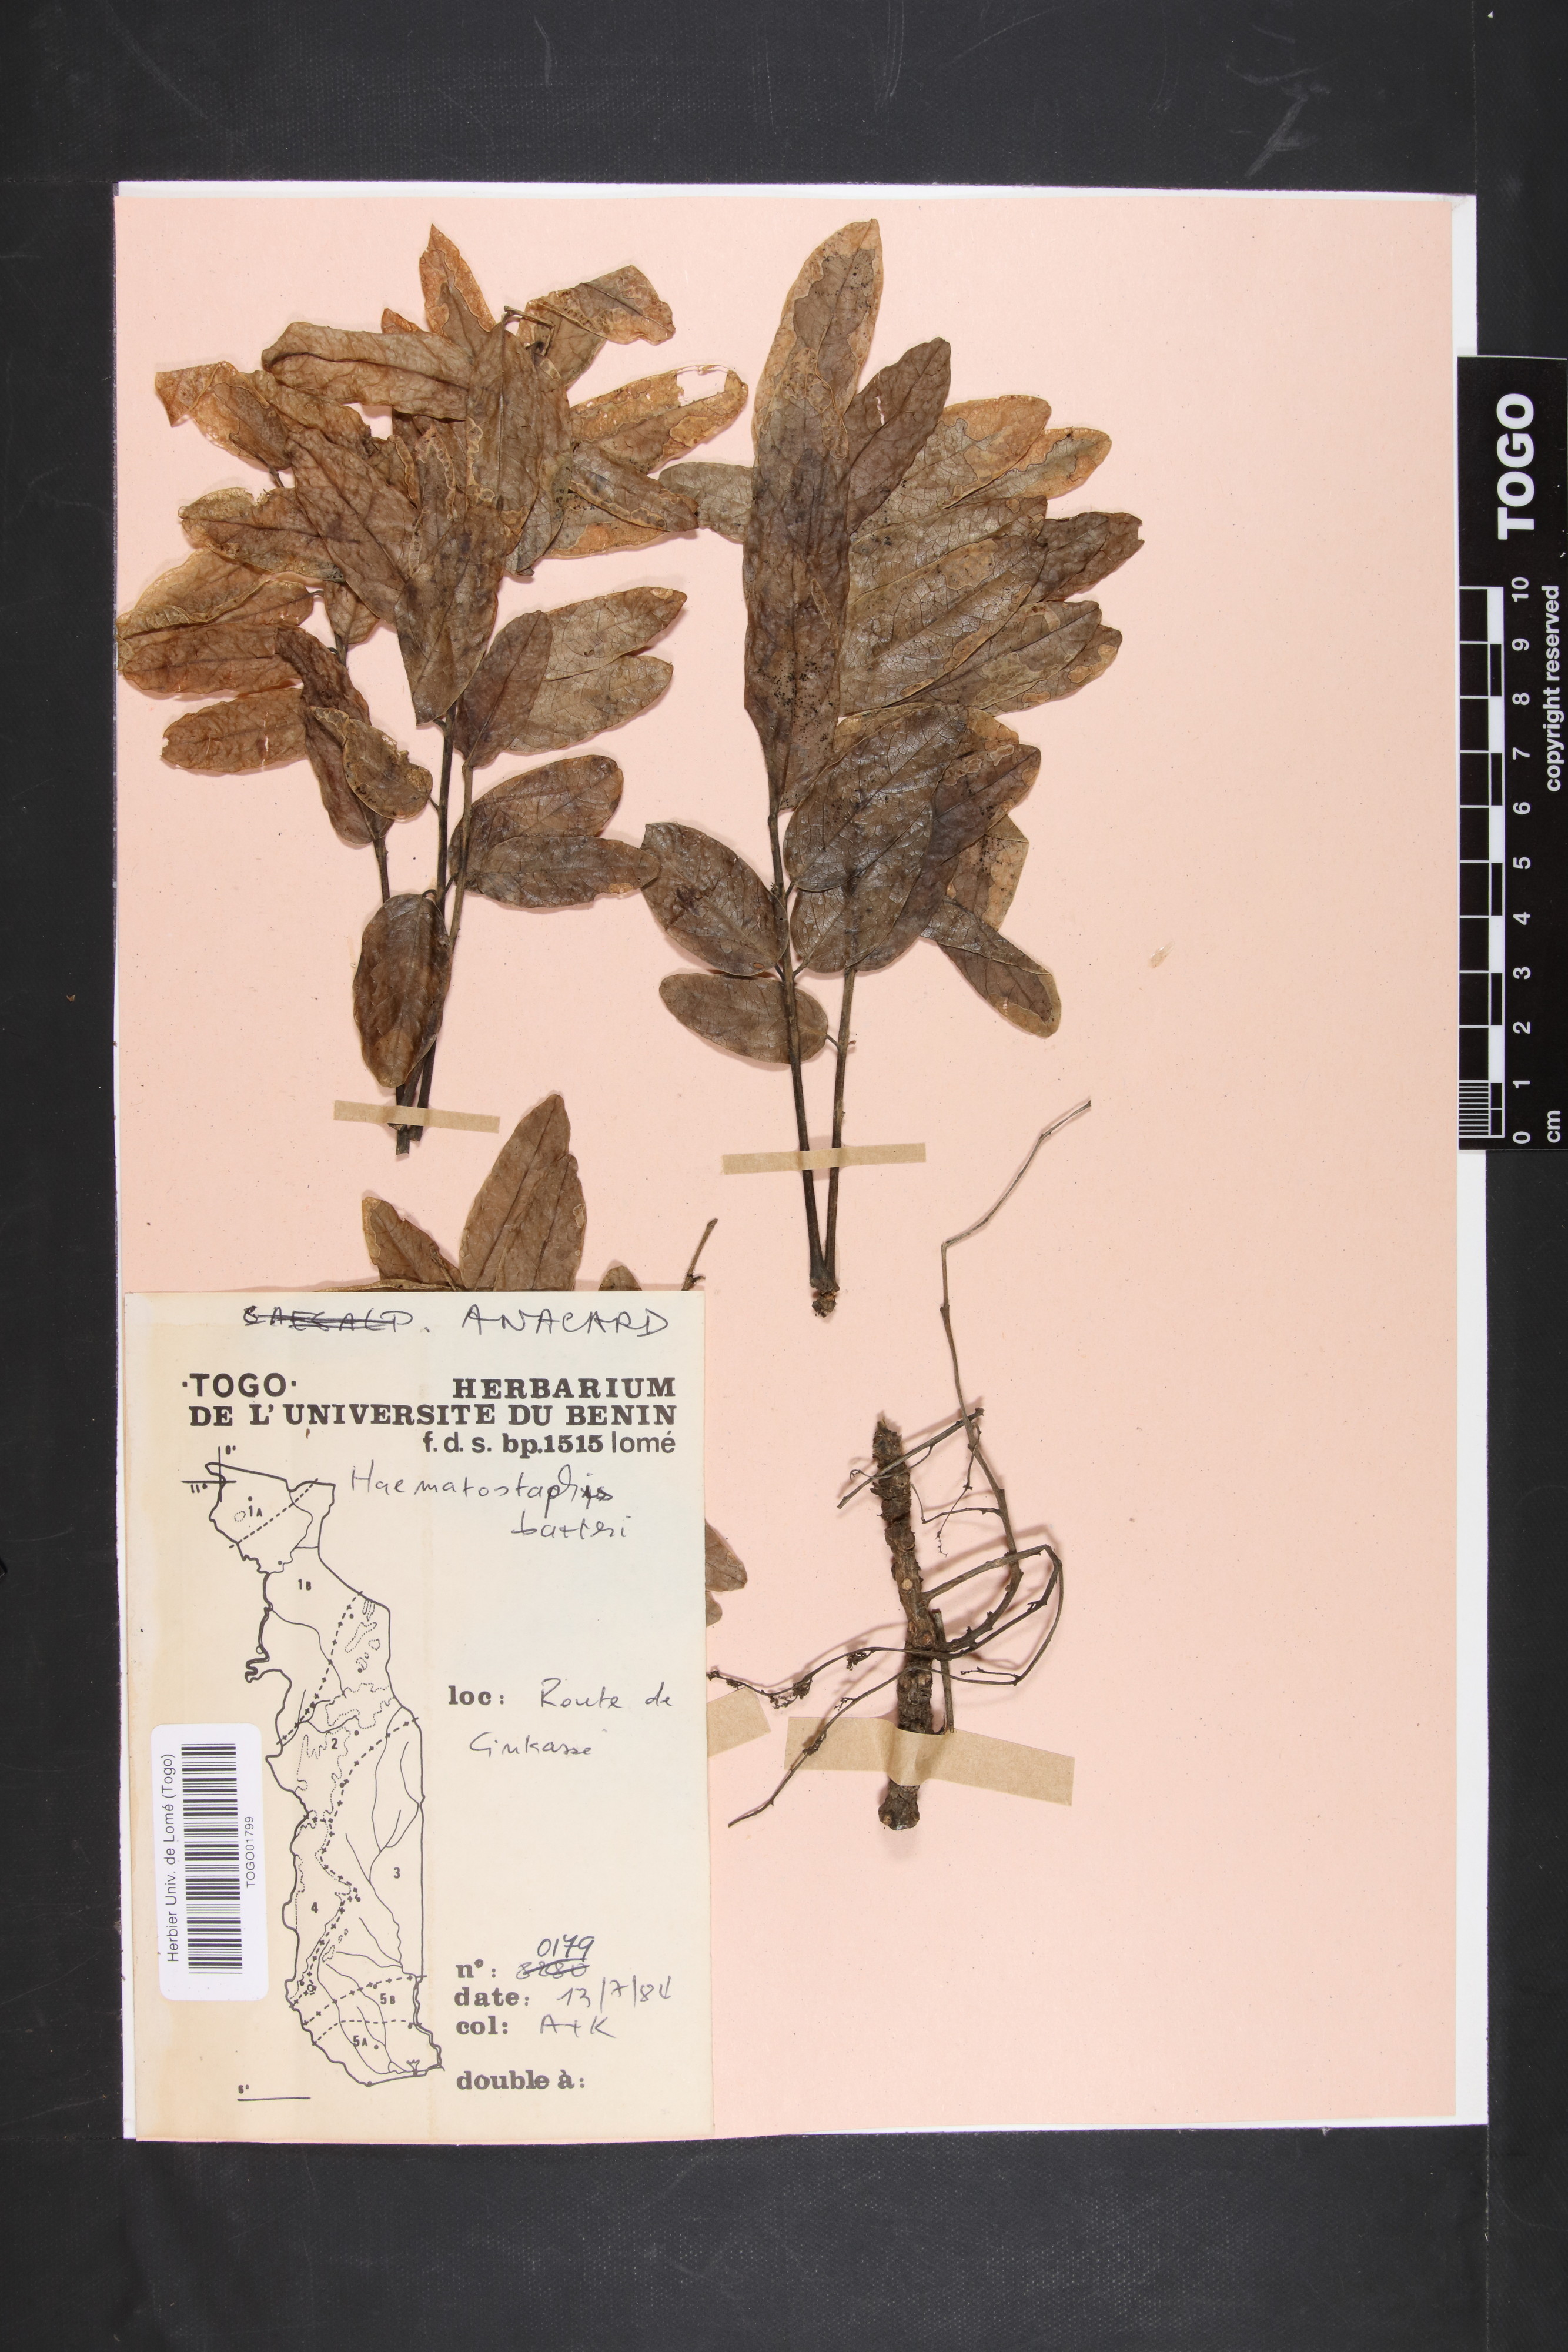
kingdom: Plantae
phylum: Tracheophyta
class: Magnoliopsida
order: Sapindales
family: Anacardiaceae
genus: Haematostaphis
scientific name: Haematostaphis barteri
